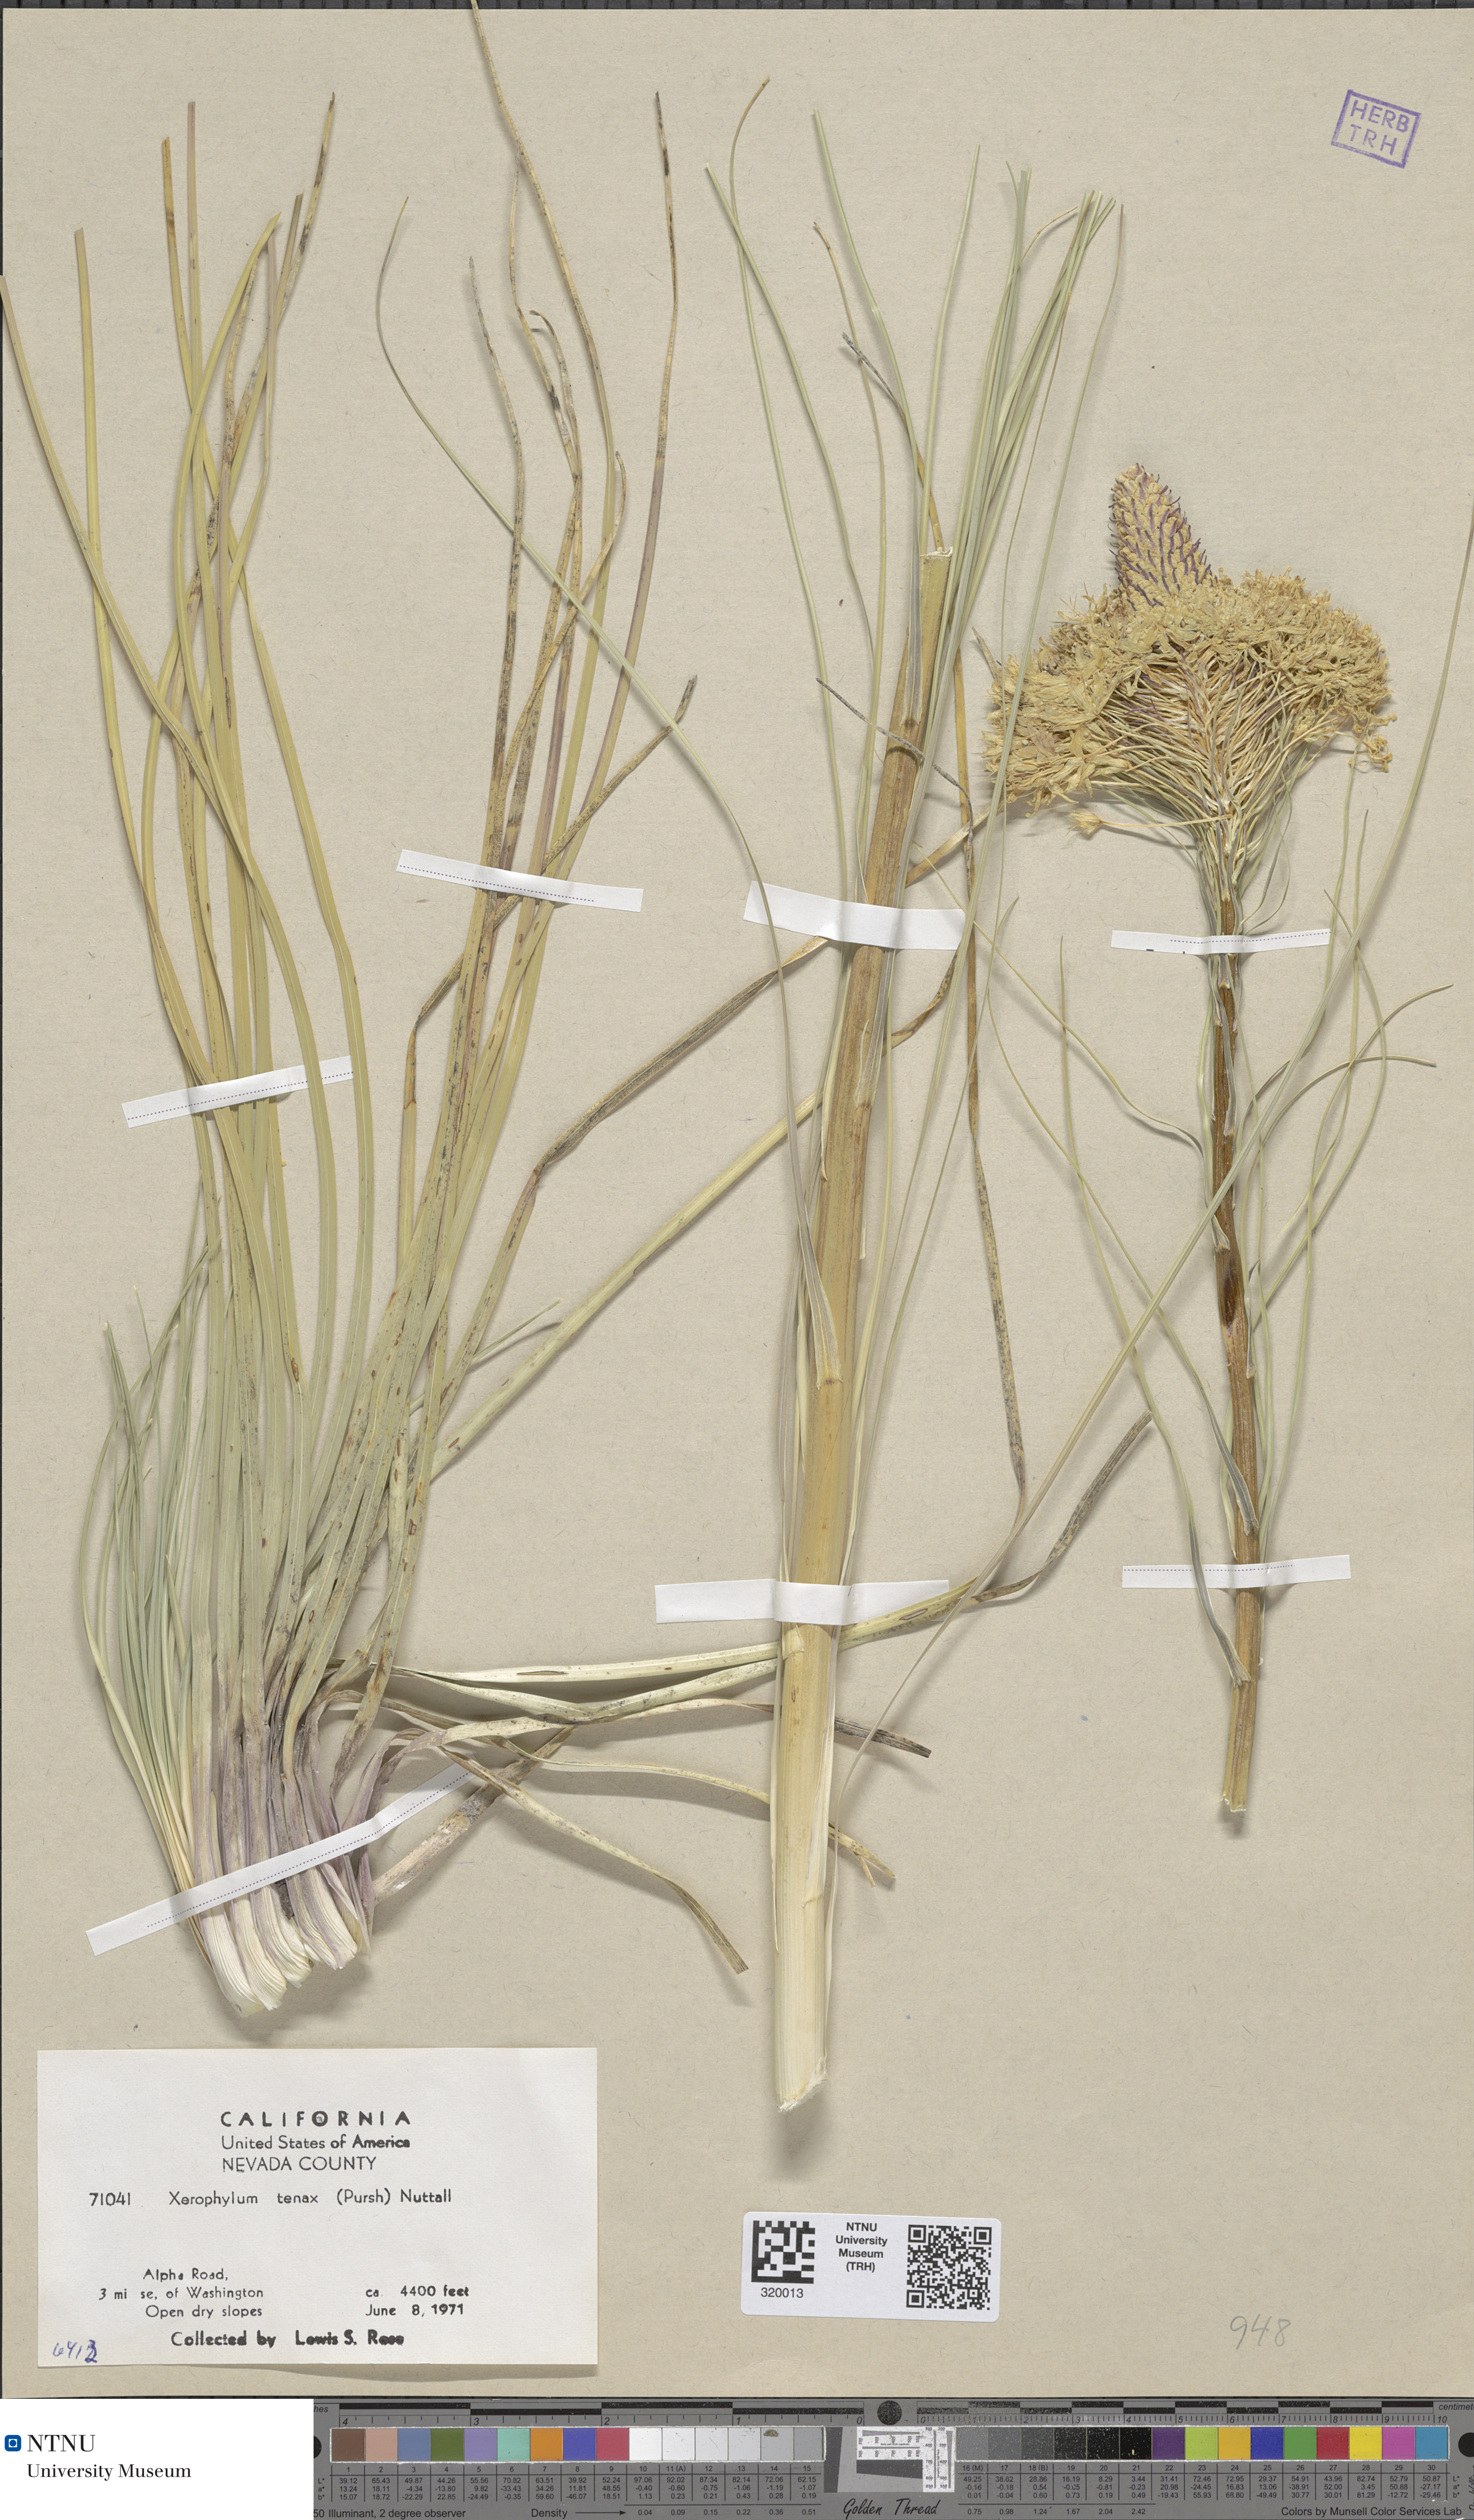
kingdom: Plantae
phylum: Tracheophyta
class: Liliopsida
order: Liliales
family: Melanthiaceae
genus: Xerophyllum
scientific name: Xerophyllum tenax
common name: Bear-grass
